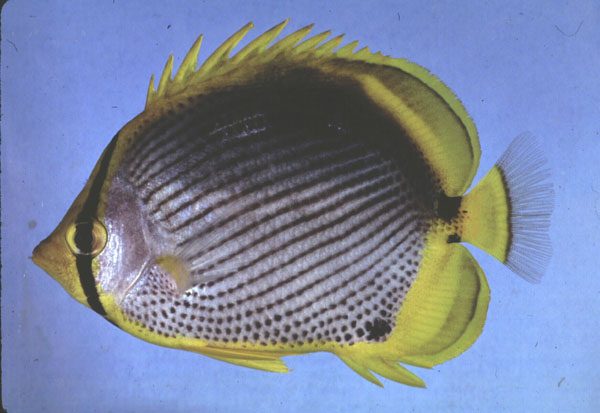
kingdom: Animalia
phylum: Chordata
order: Perciformes
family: Chaetodontidae
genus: Chaetodon
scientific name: Chaetodon melannotus
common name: Blackback butterflyfish
